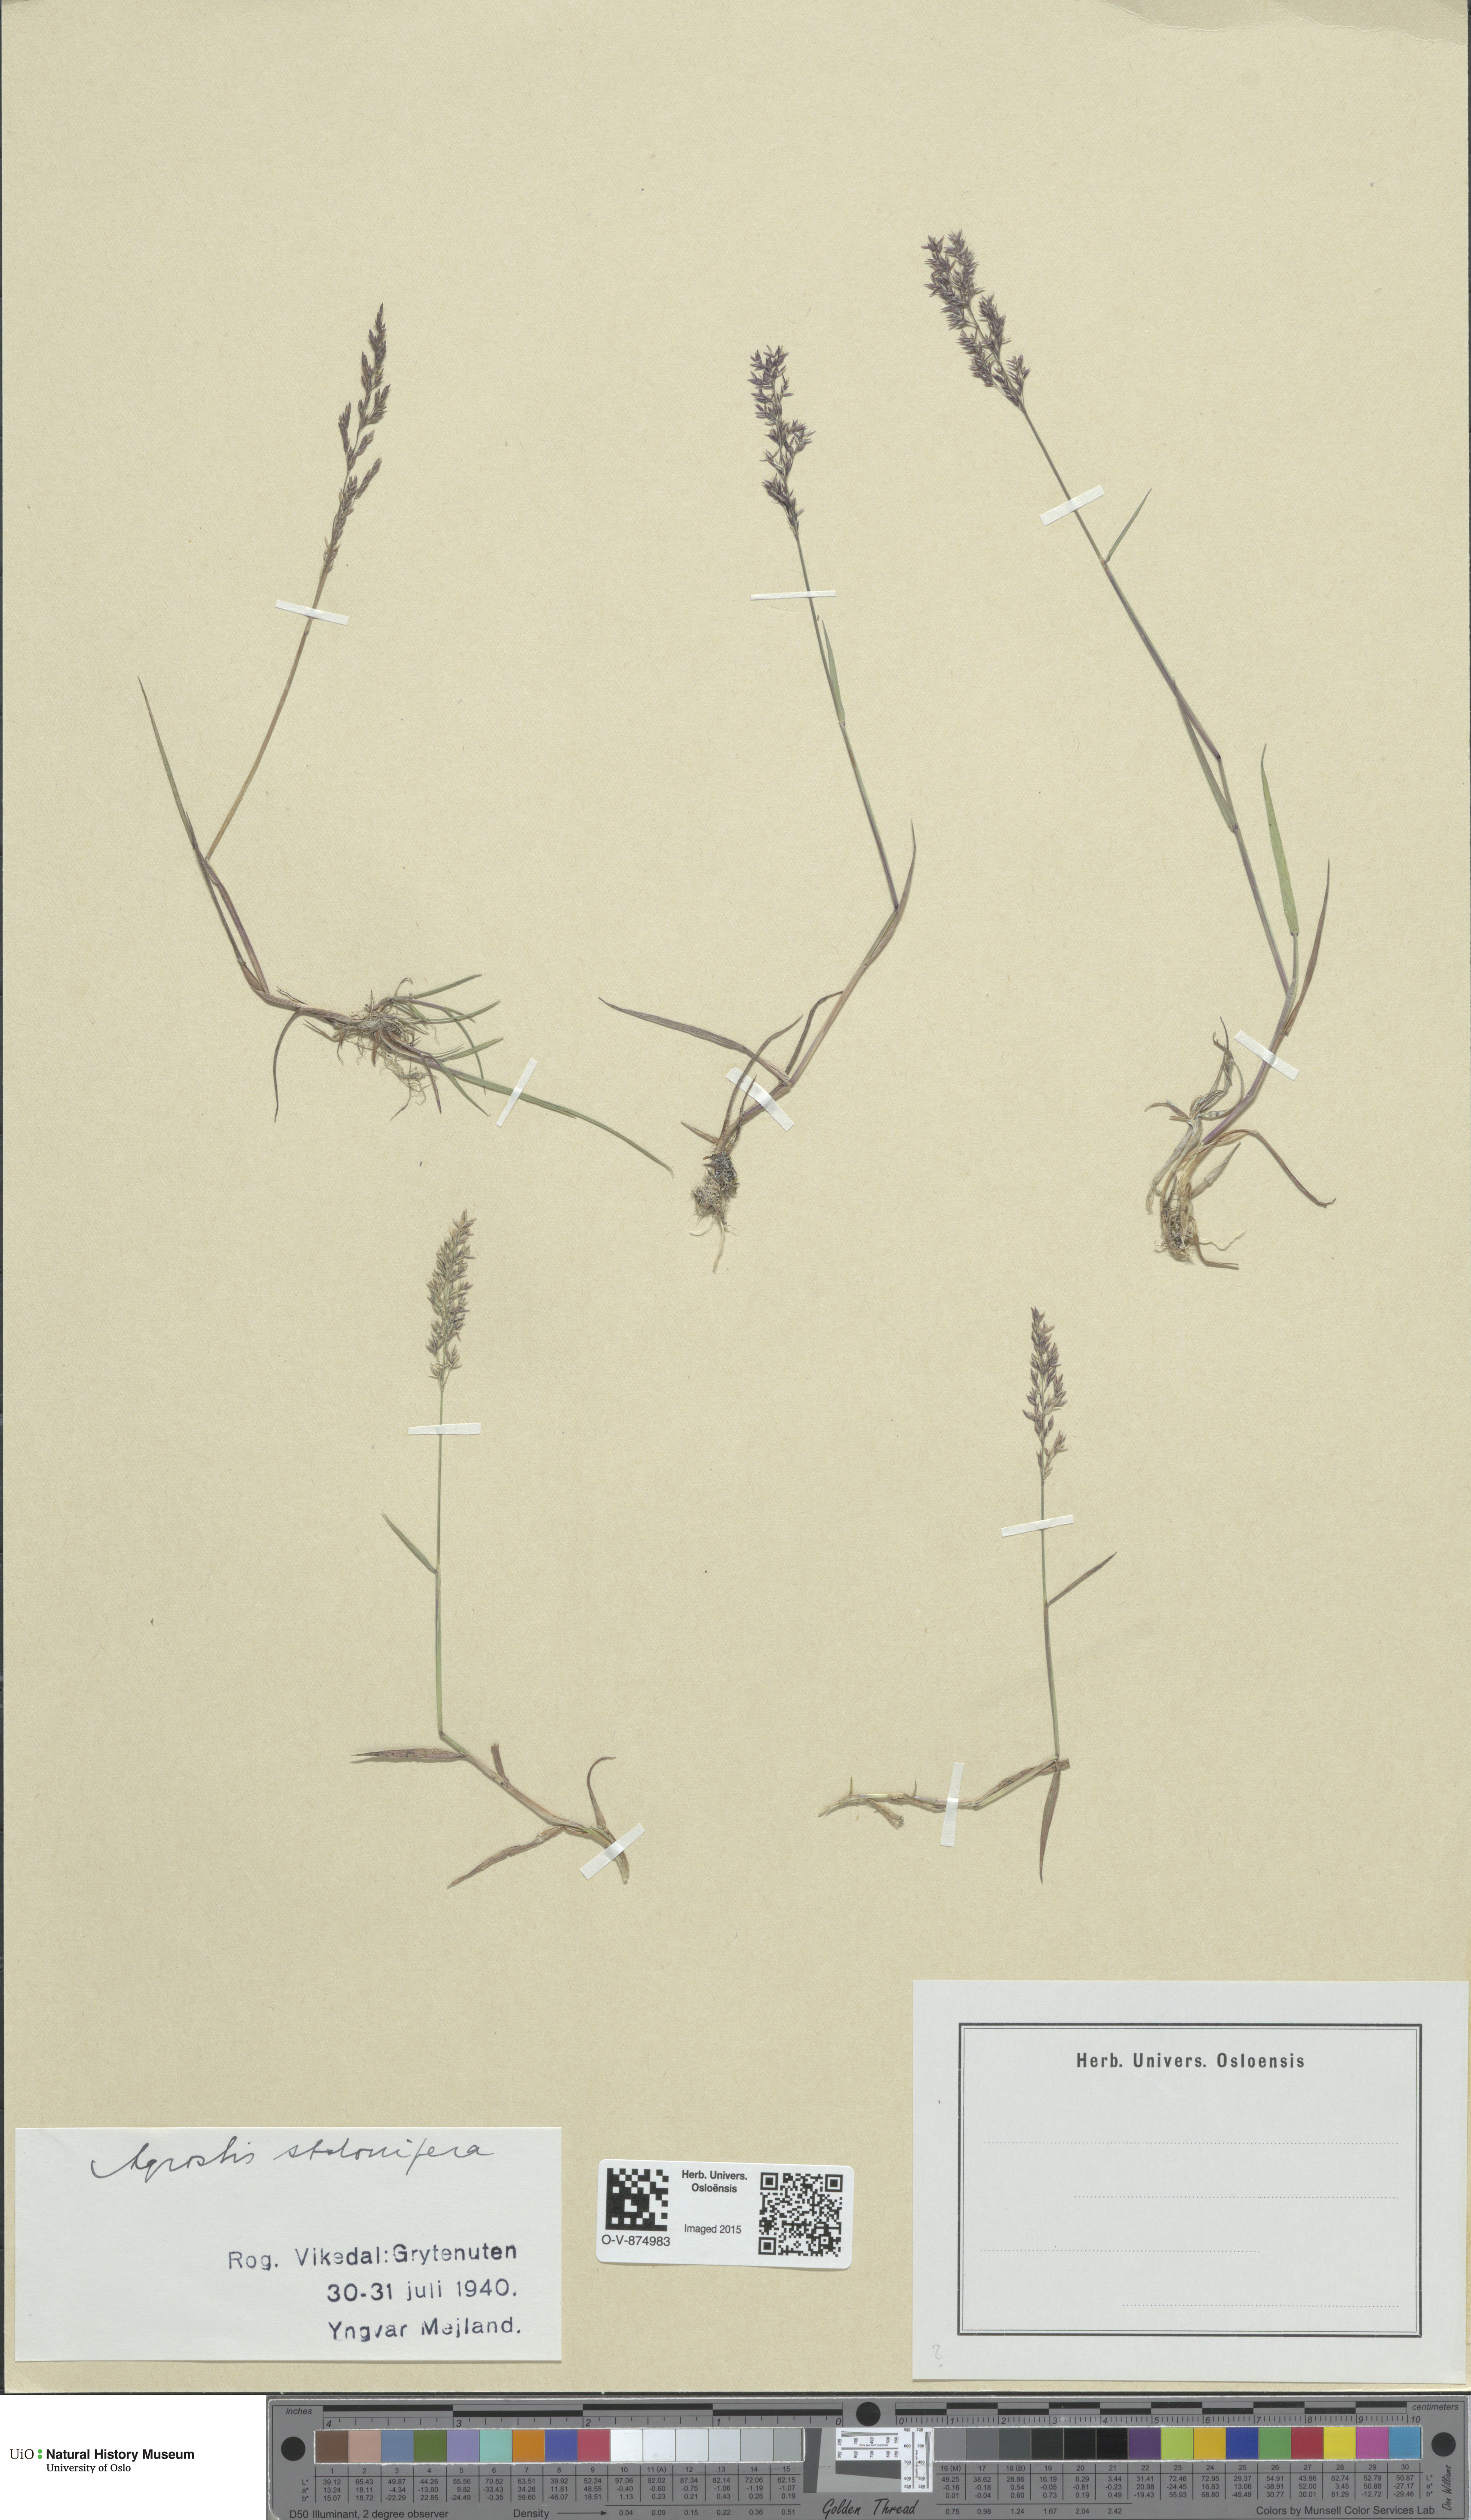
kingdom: Plantae
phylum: Tracheophyta
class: Liliopsida
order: Poales
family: Poaceae
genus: Agrostis
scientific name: Agrostis stolonifera
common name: Creeping bentgrass
